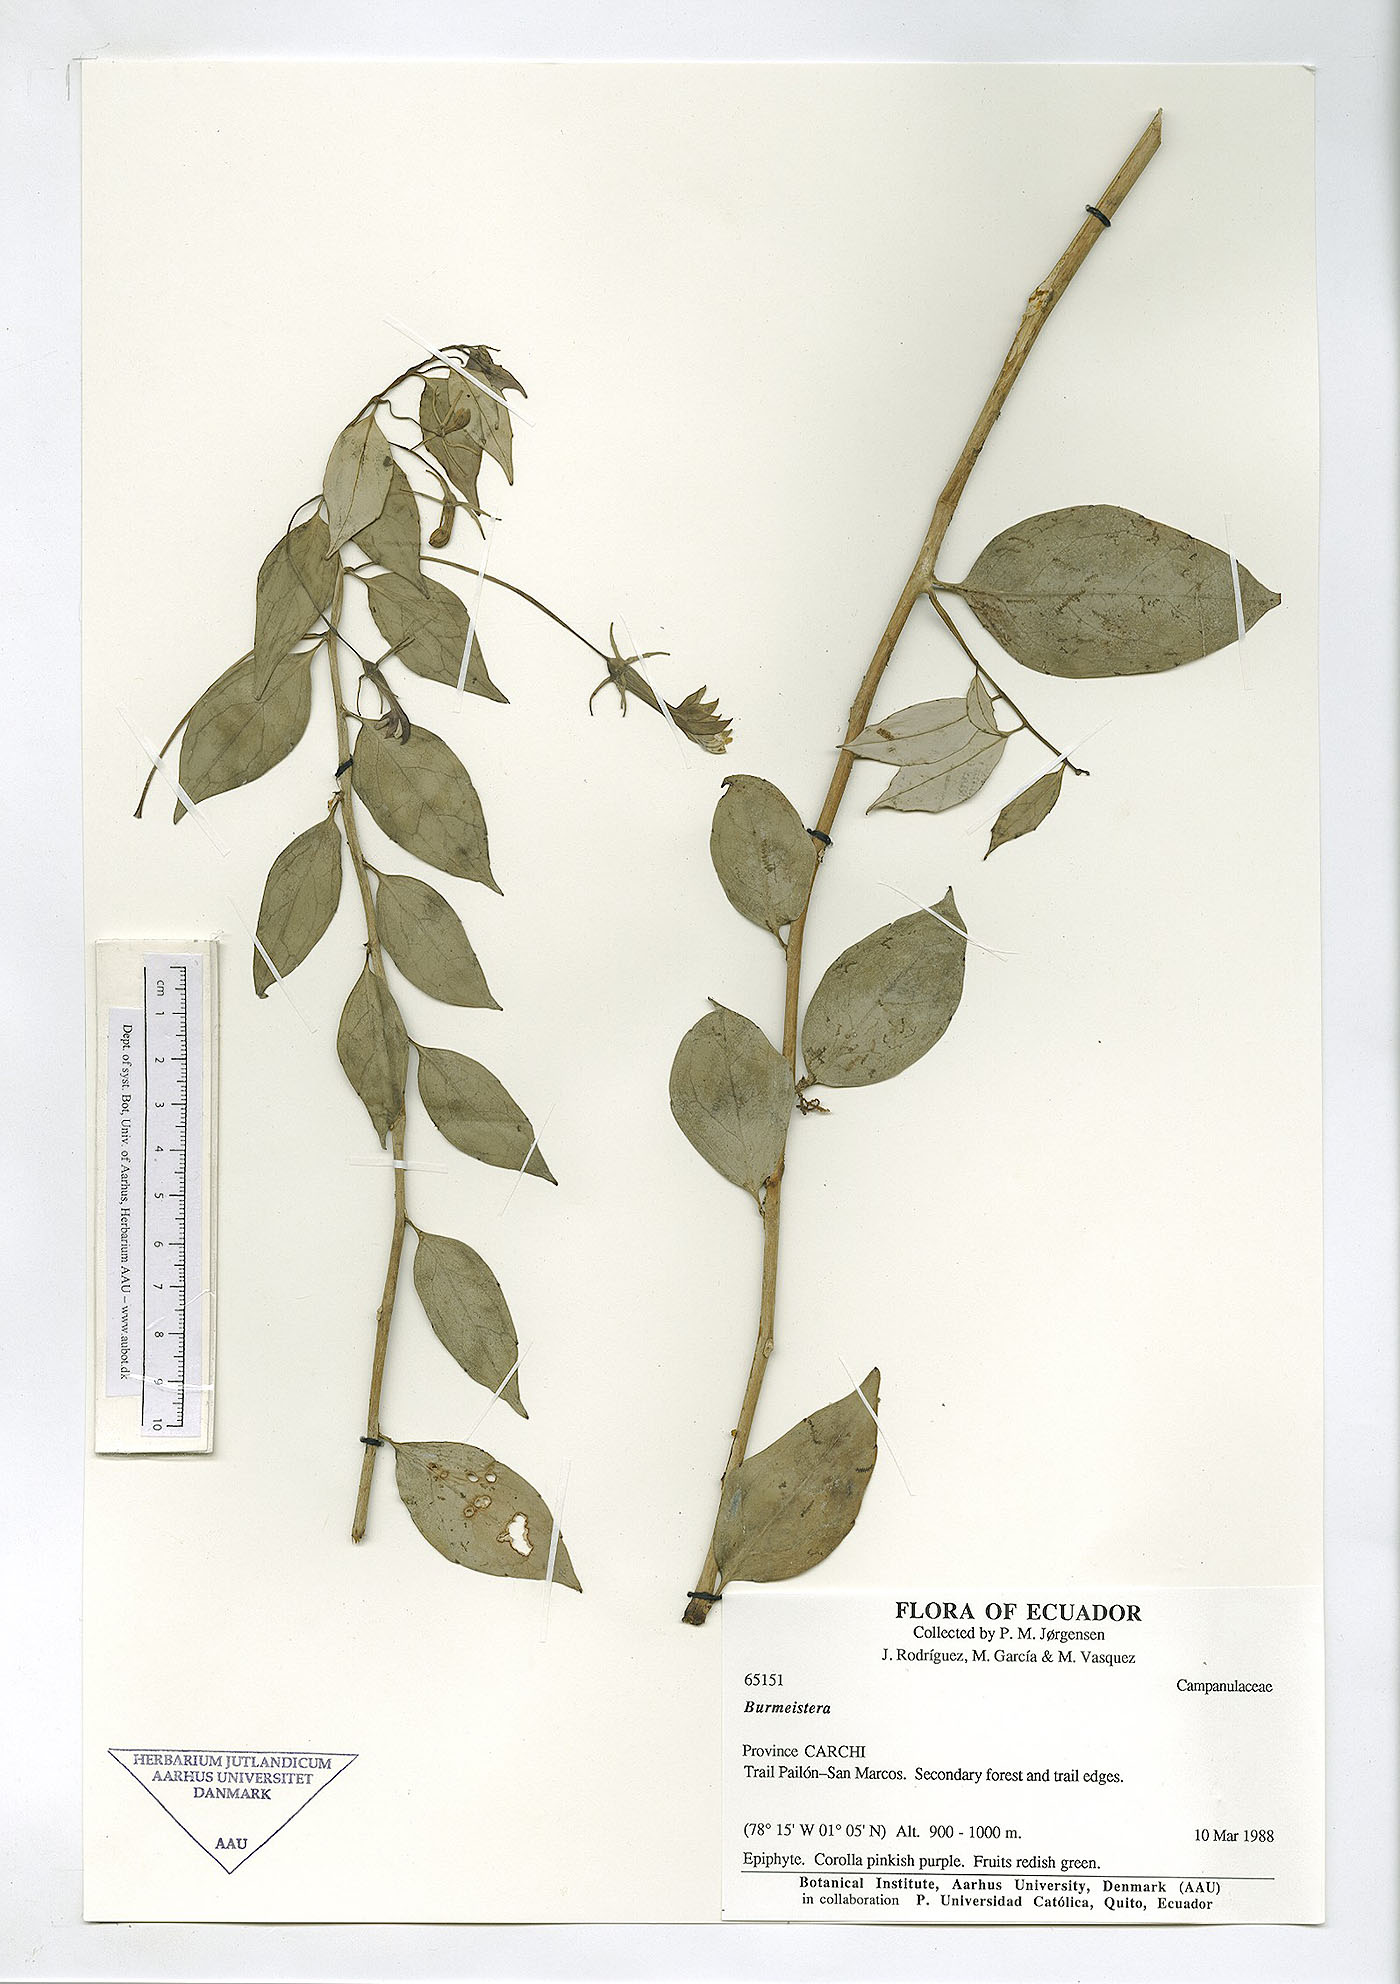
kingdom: Plantae
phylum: Tracheophyta
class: Magnoliopsida
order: Asterales
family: Campanulaceae
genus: Burmeistera
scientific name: Burmeistera
